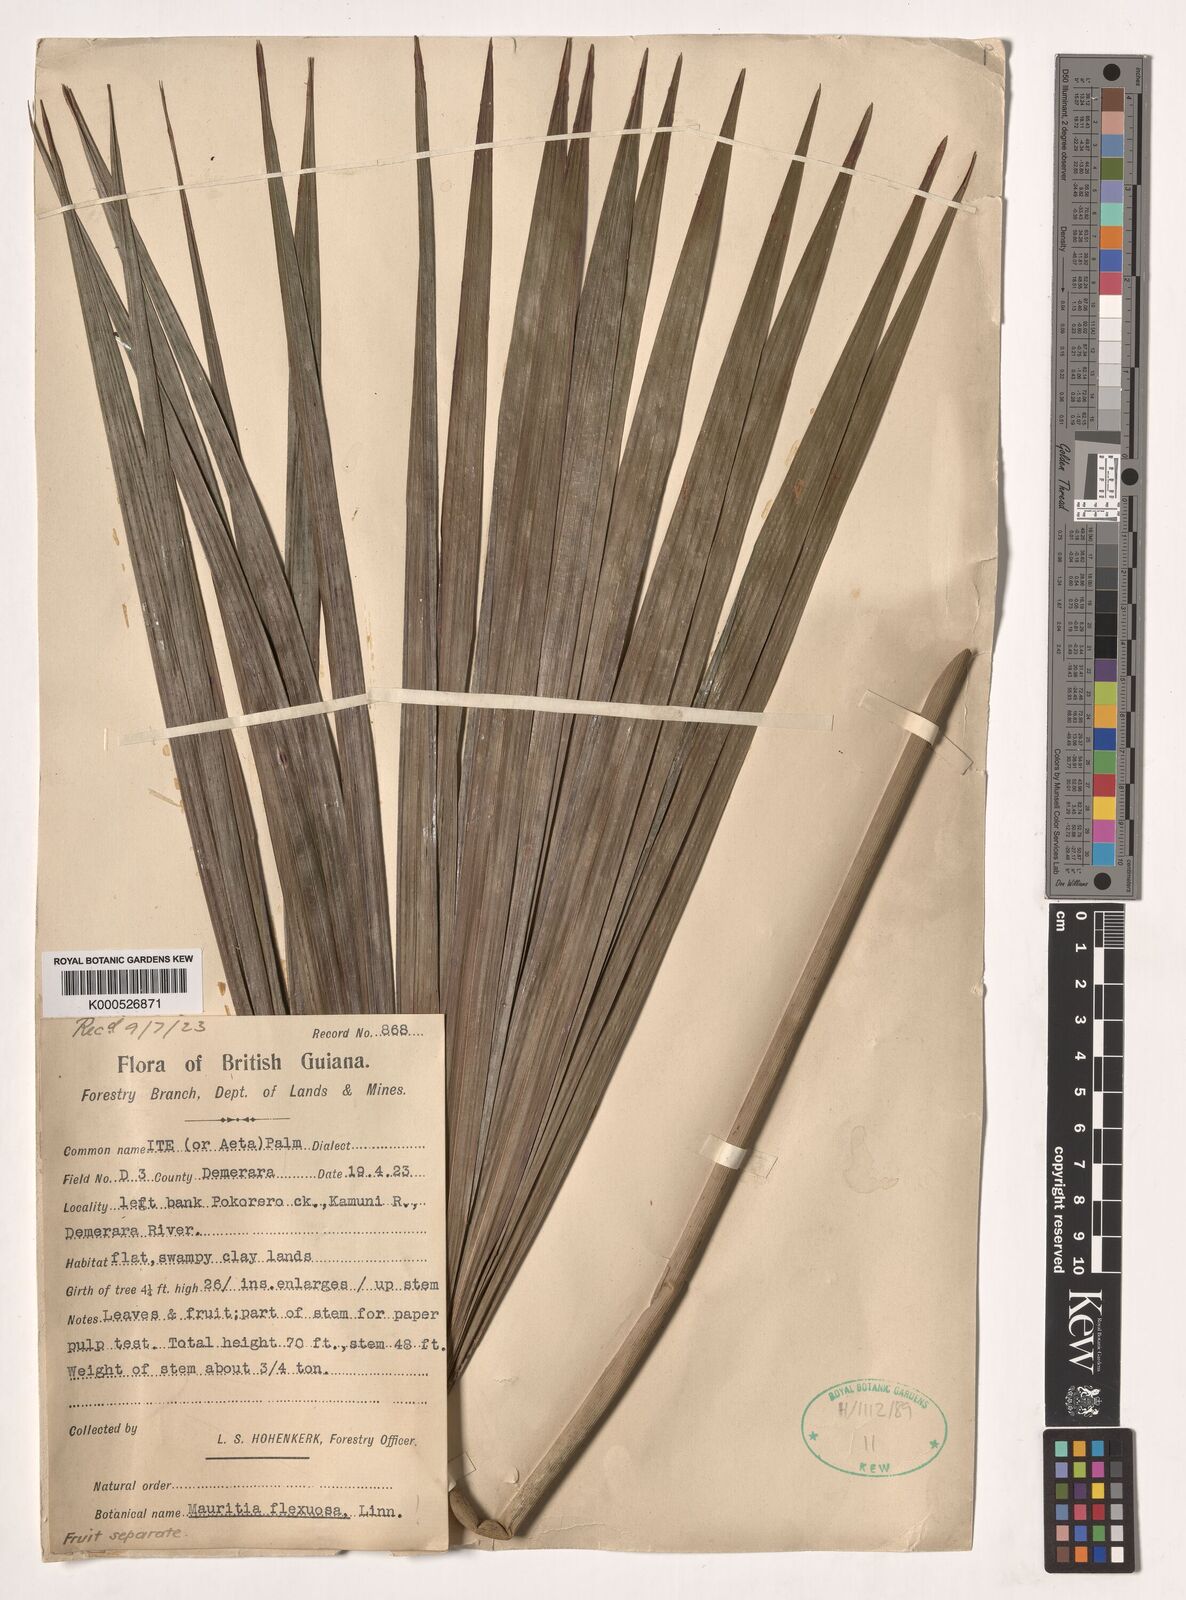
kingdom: Plantae
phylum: Tracheophyta
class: Liliopsida
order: Arecales
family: Arecaceae
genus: Mauritia
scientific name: Mauritia flexuosa
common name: Tree-of-life
